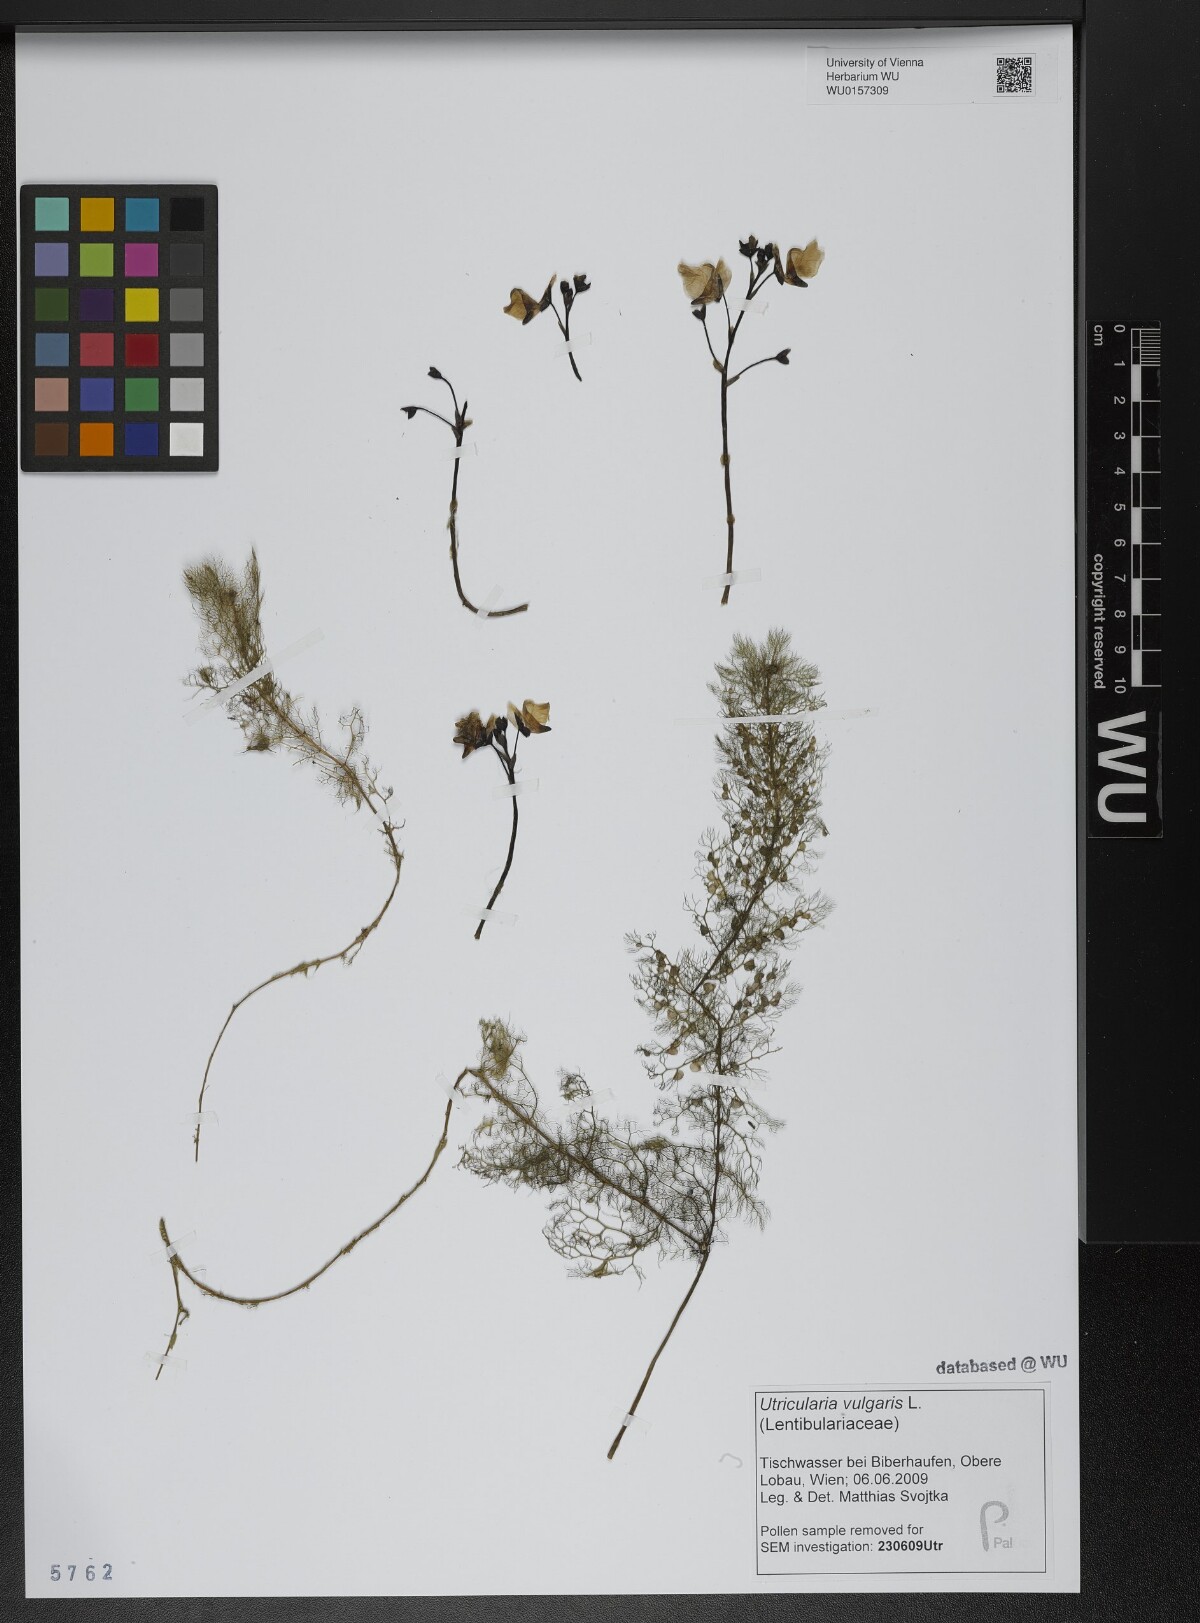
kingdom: Plantae
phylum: Tracheophyta
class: Magnoliopsida
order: Lamiales
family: Lentibulariaceae
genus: Utricularia
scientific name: Utricularia vulgaris
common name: Greater bladderwort
